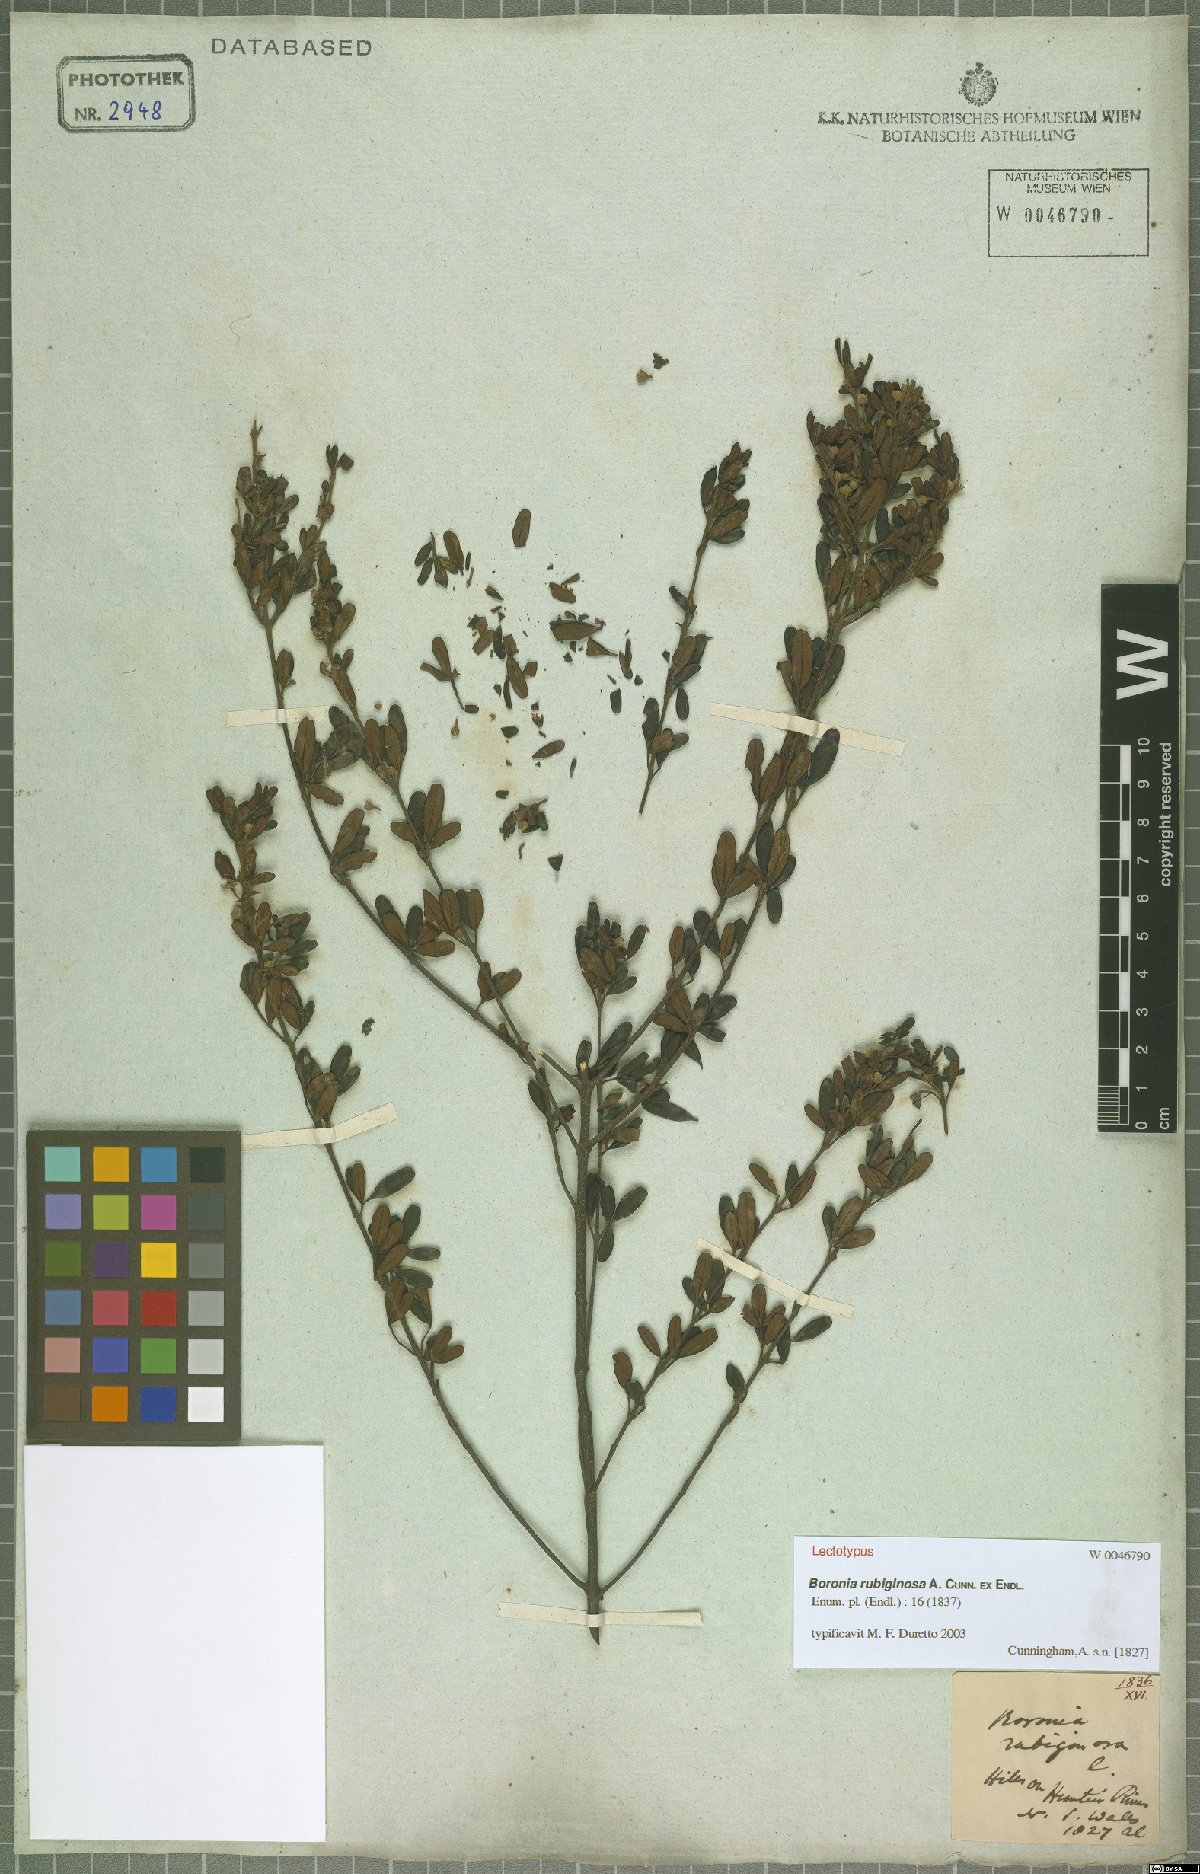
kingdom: Plantae
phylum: Tracheophyta
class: Magnoliopsida
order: Sapindales
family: Rutaceae
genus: Boronia
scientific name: Boronia rubiginosa
